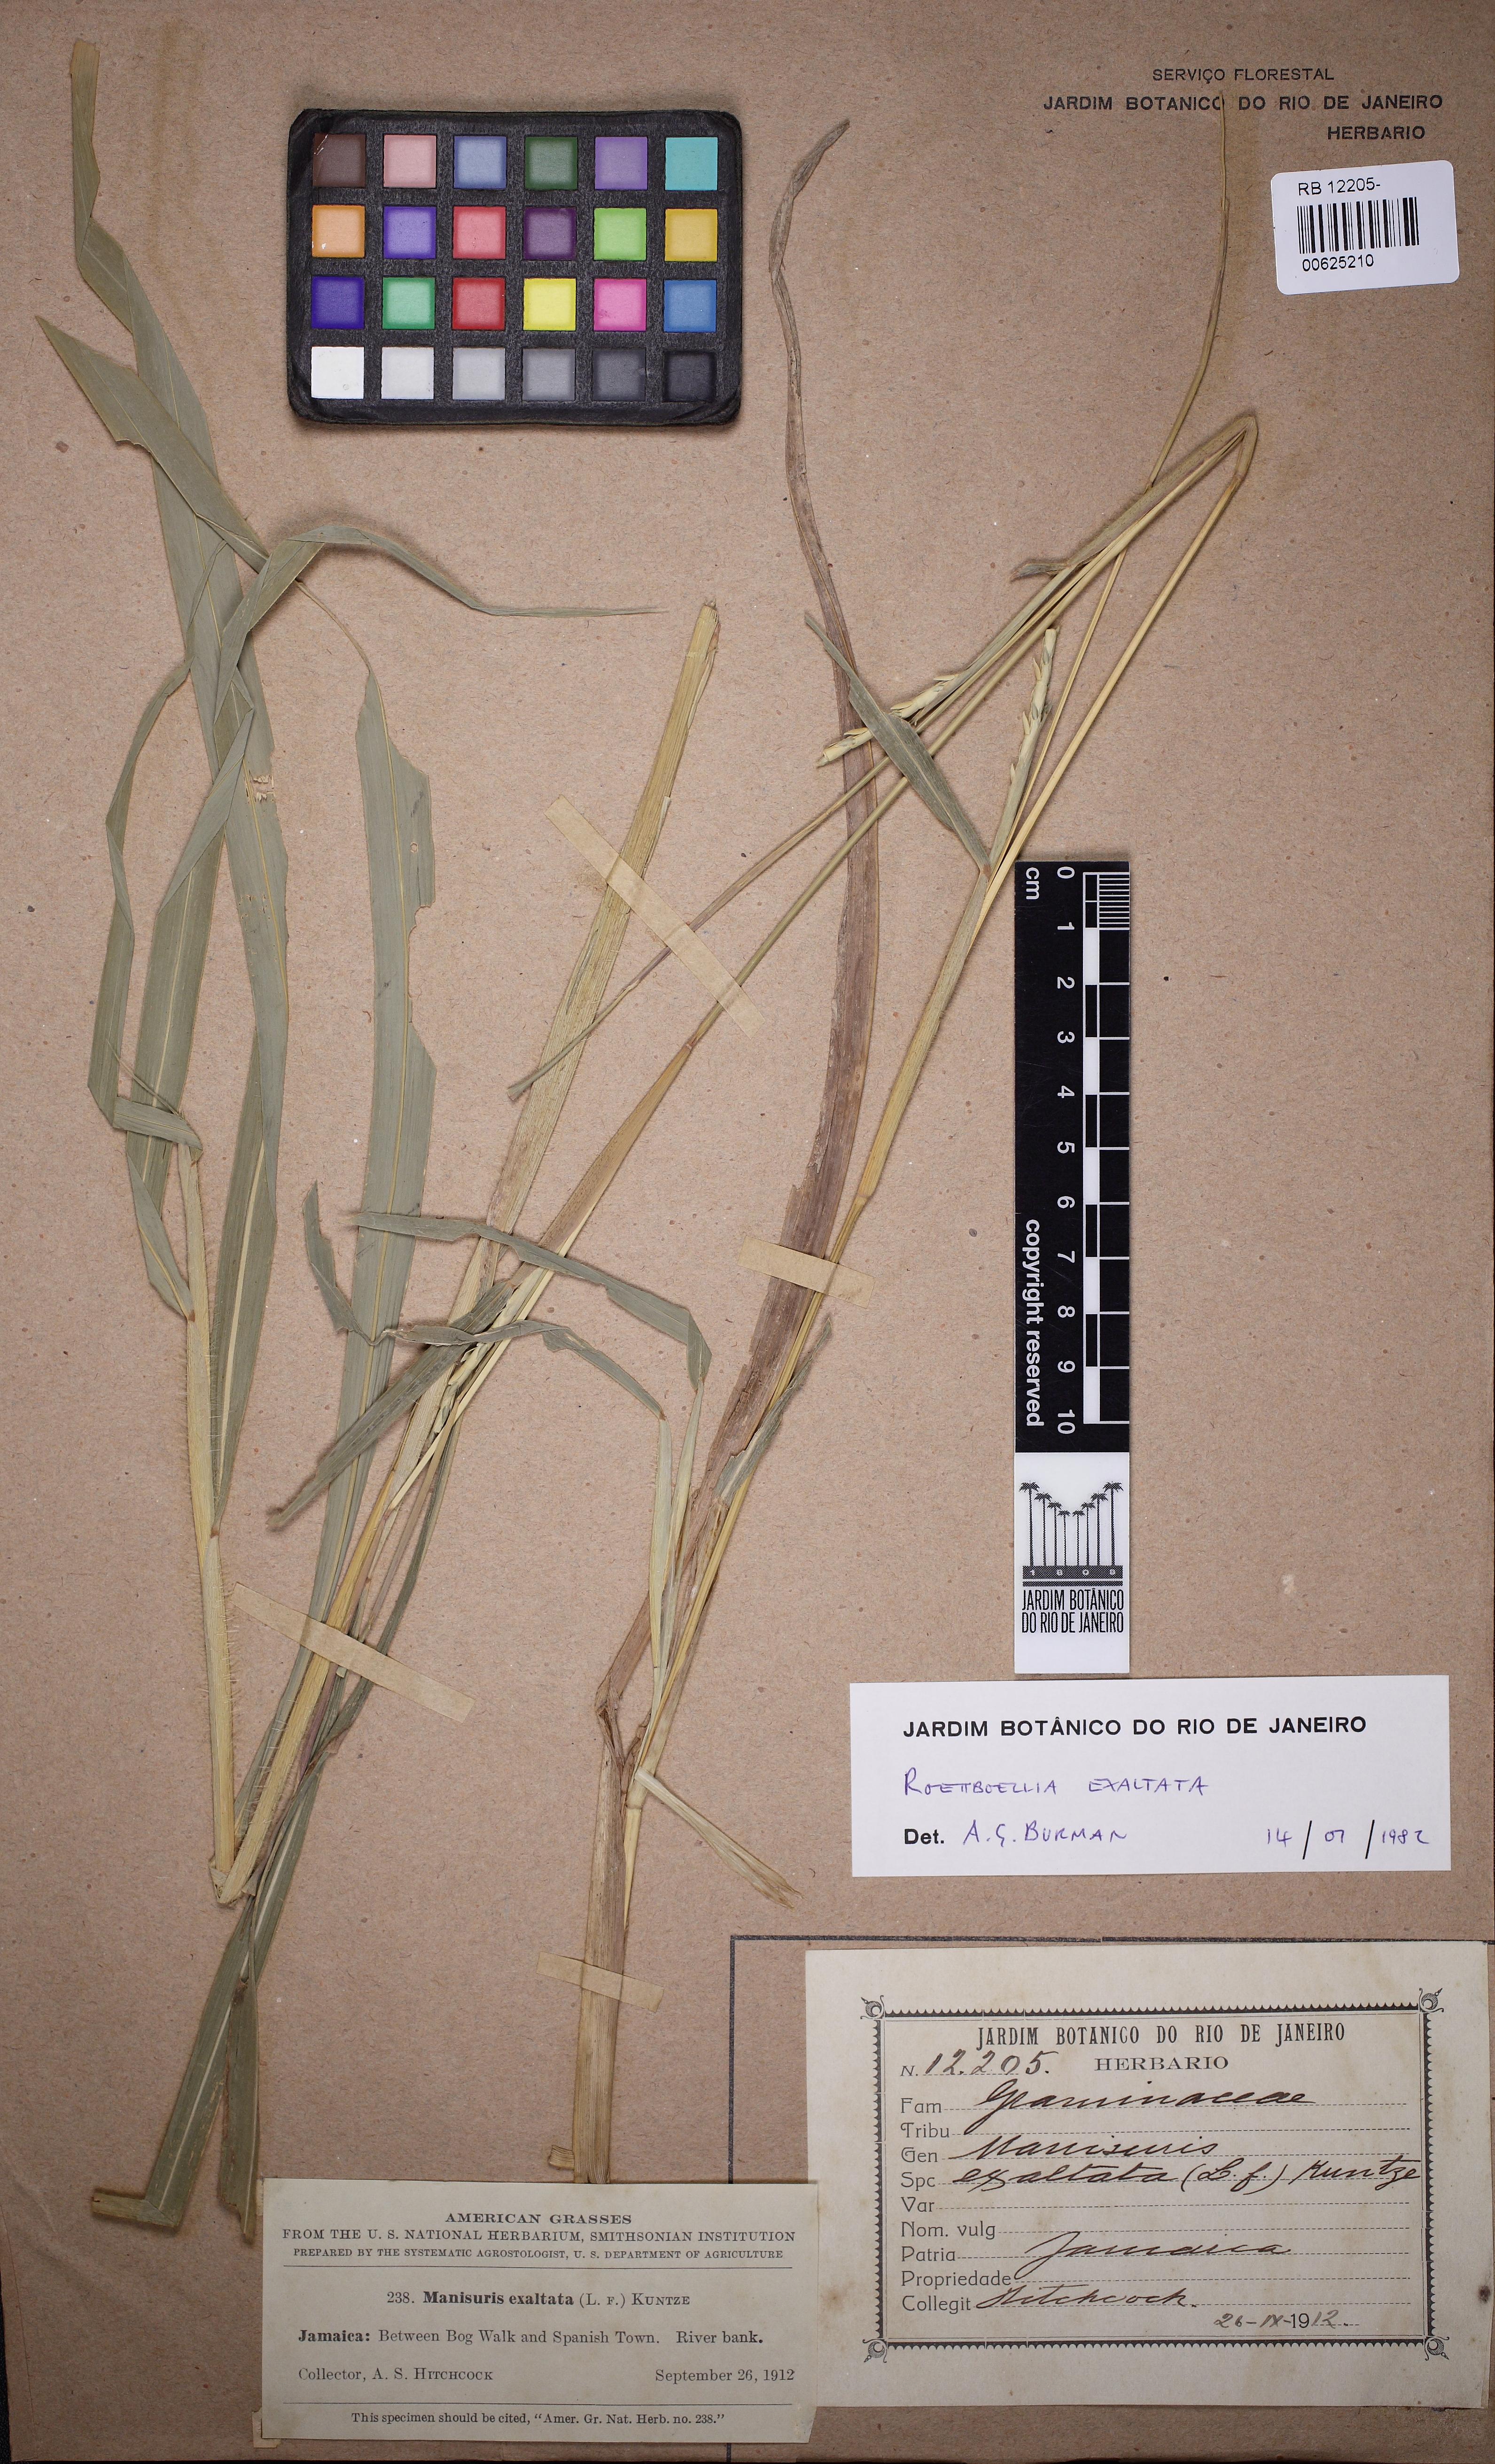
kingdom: Plantae
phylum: Tracheophyta
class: Liliopsida
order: Poales
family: Poaceae
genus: Rottboellia
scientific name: Rottboellia cochinchinensis
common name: Itchgrass
